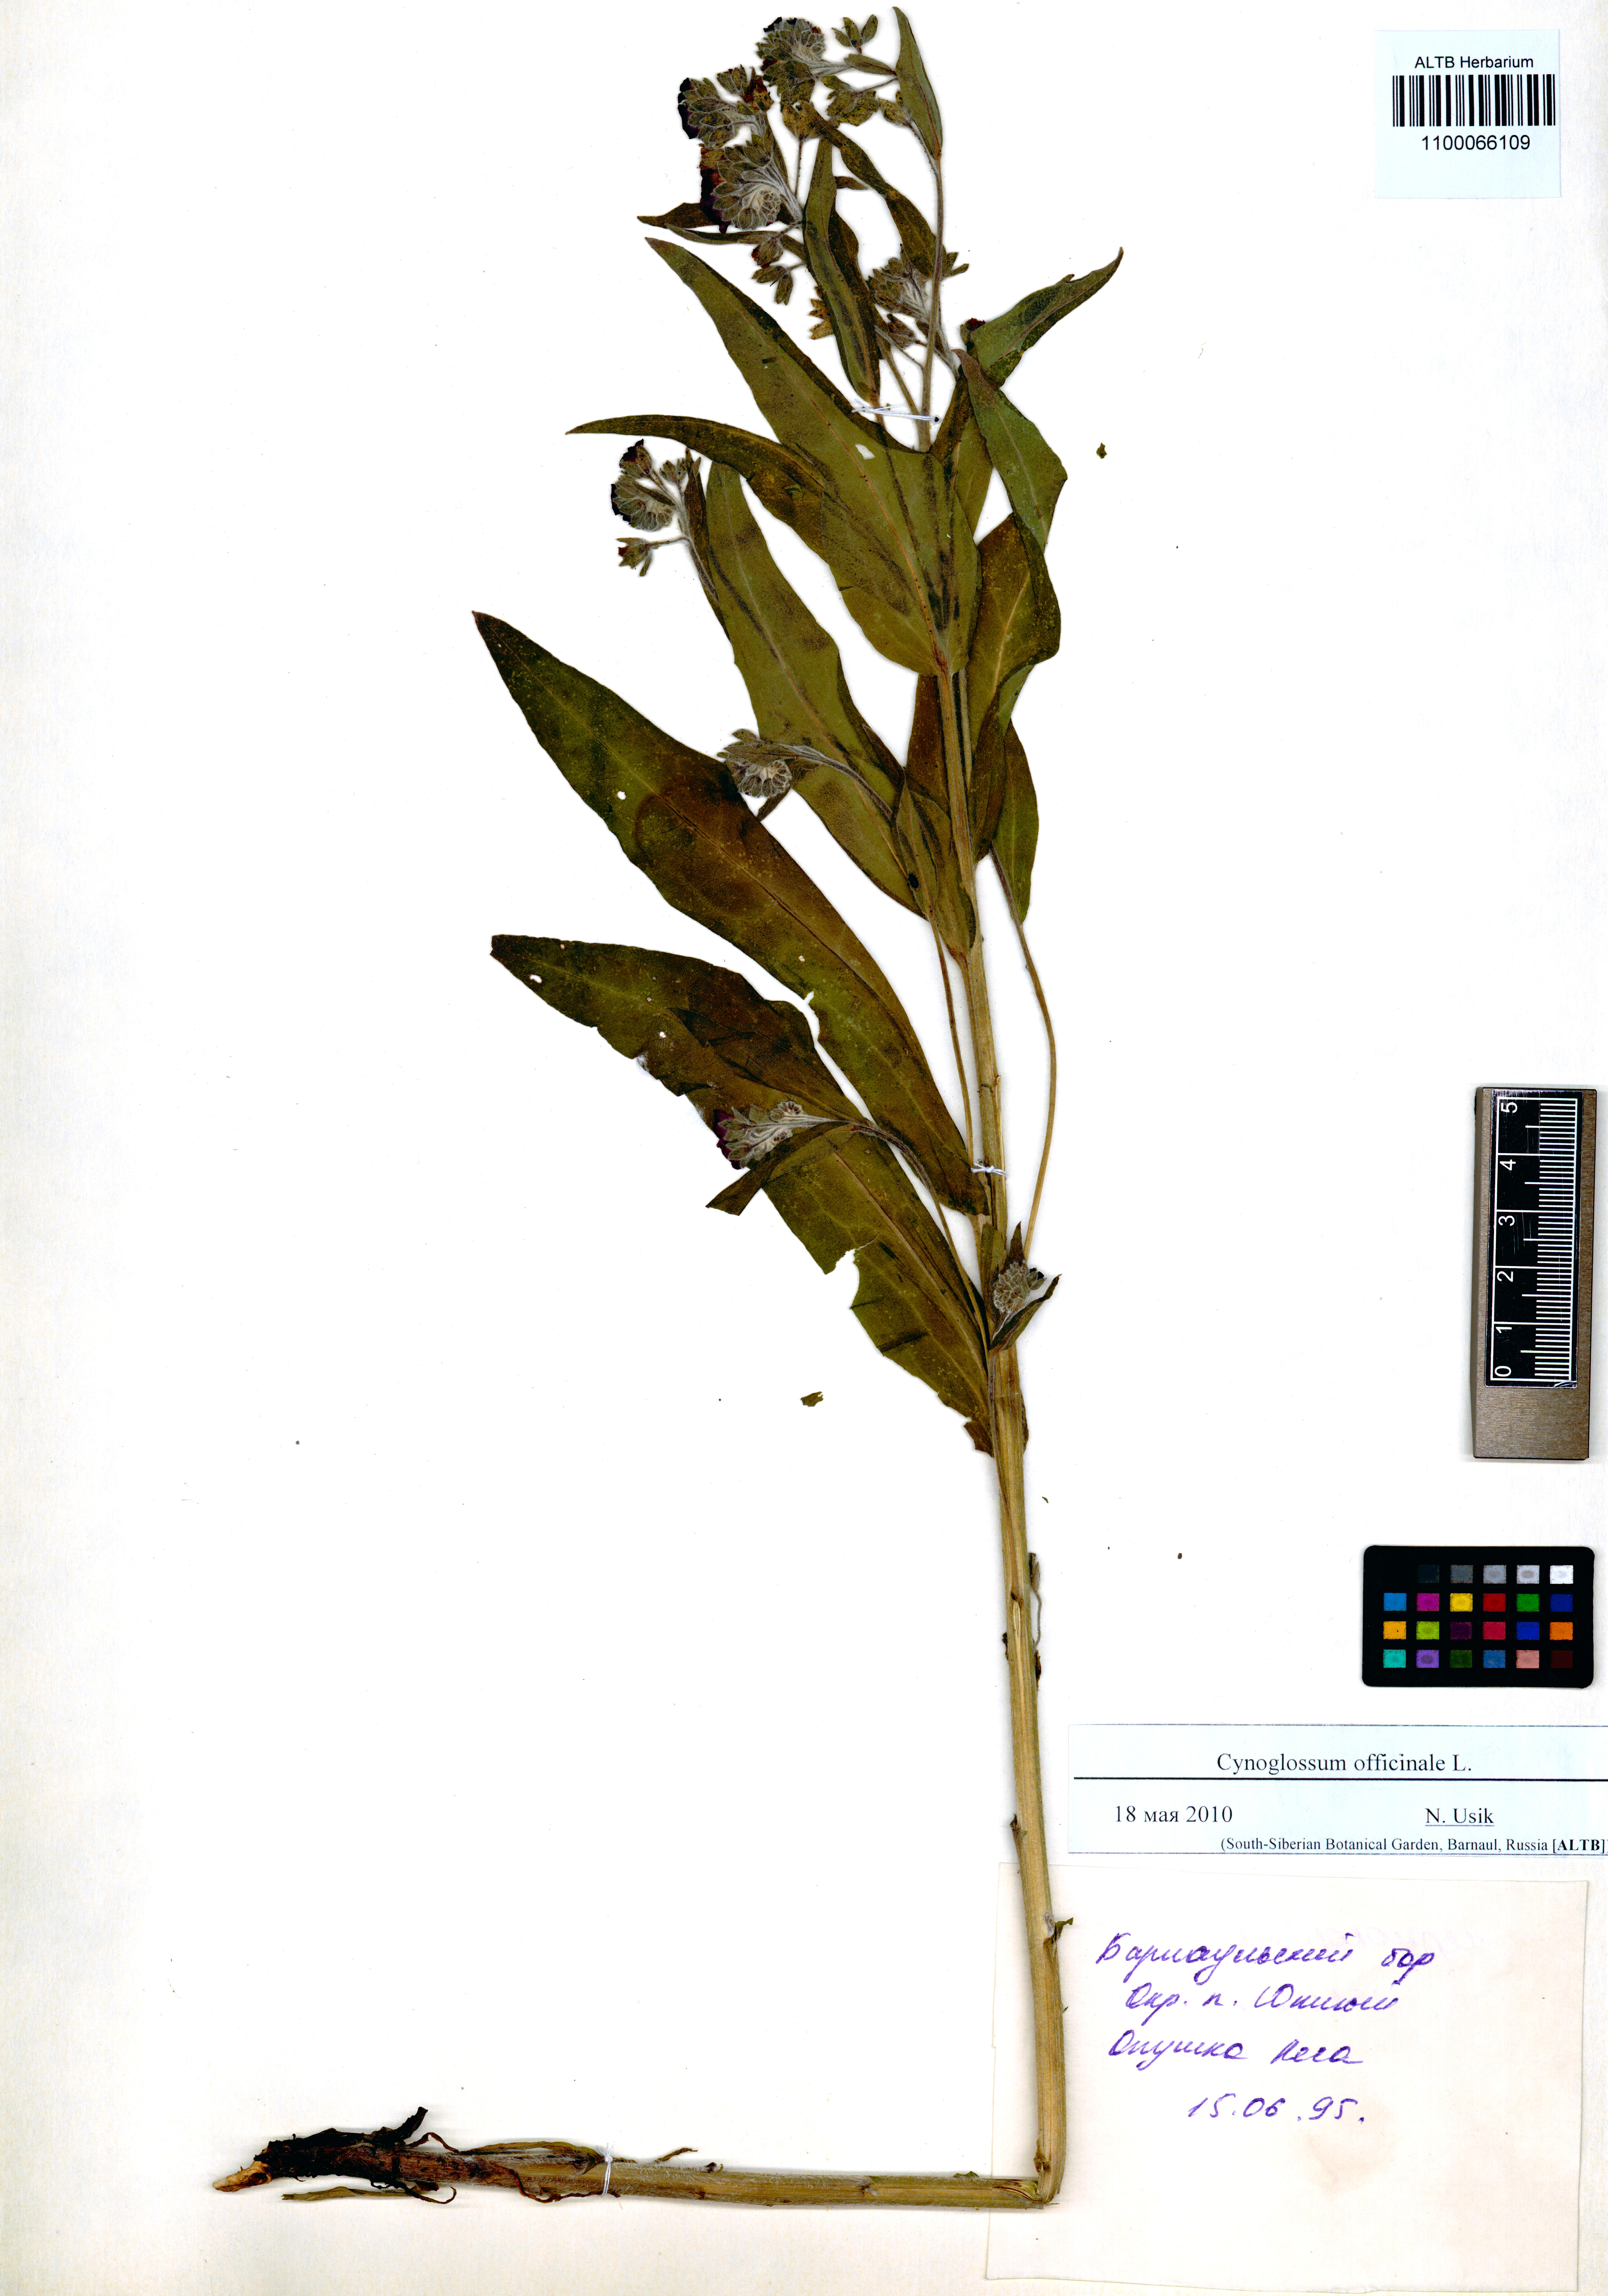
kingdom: Plantae
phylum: Tracheophyta
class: Magnoliopsida
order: Boraginales
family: Boraginaceae
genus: Cynoglossum
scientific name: Cynoglossum officinale
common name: Hound's-tongue
